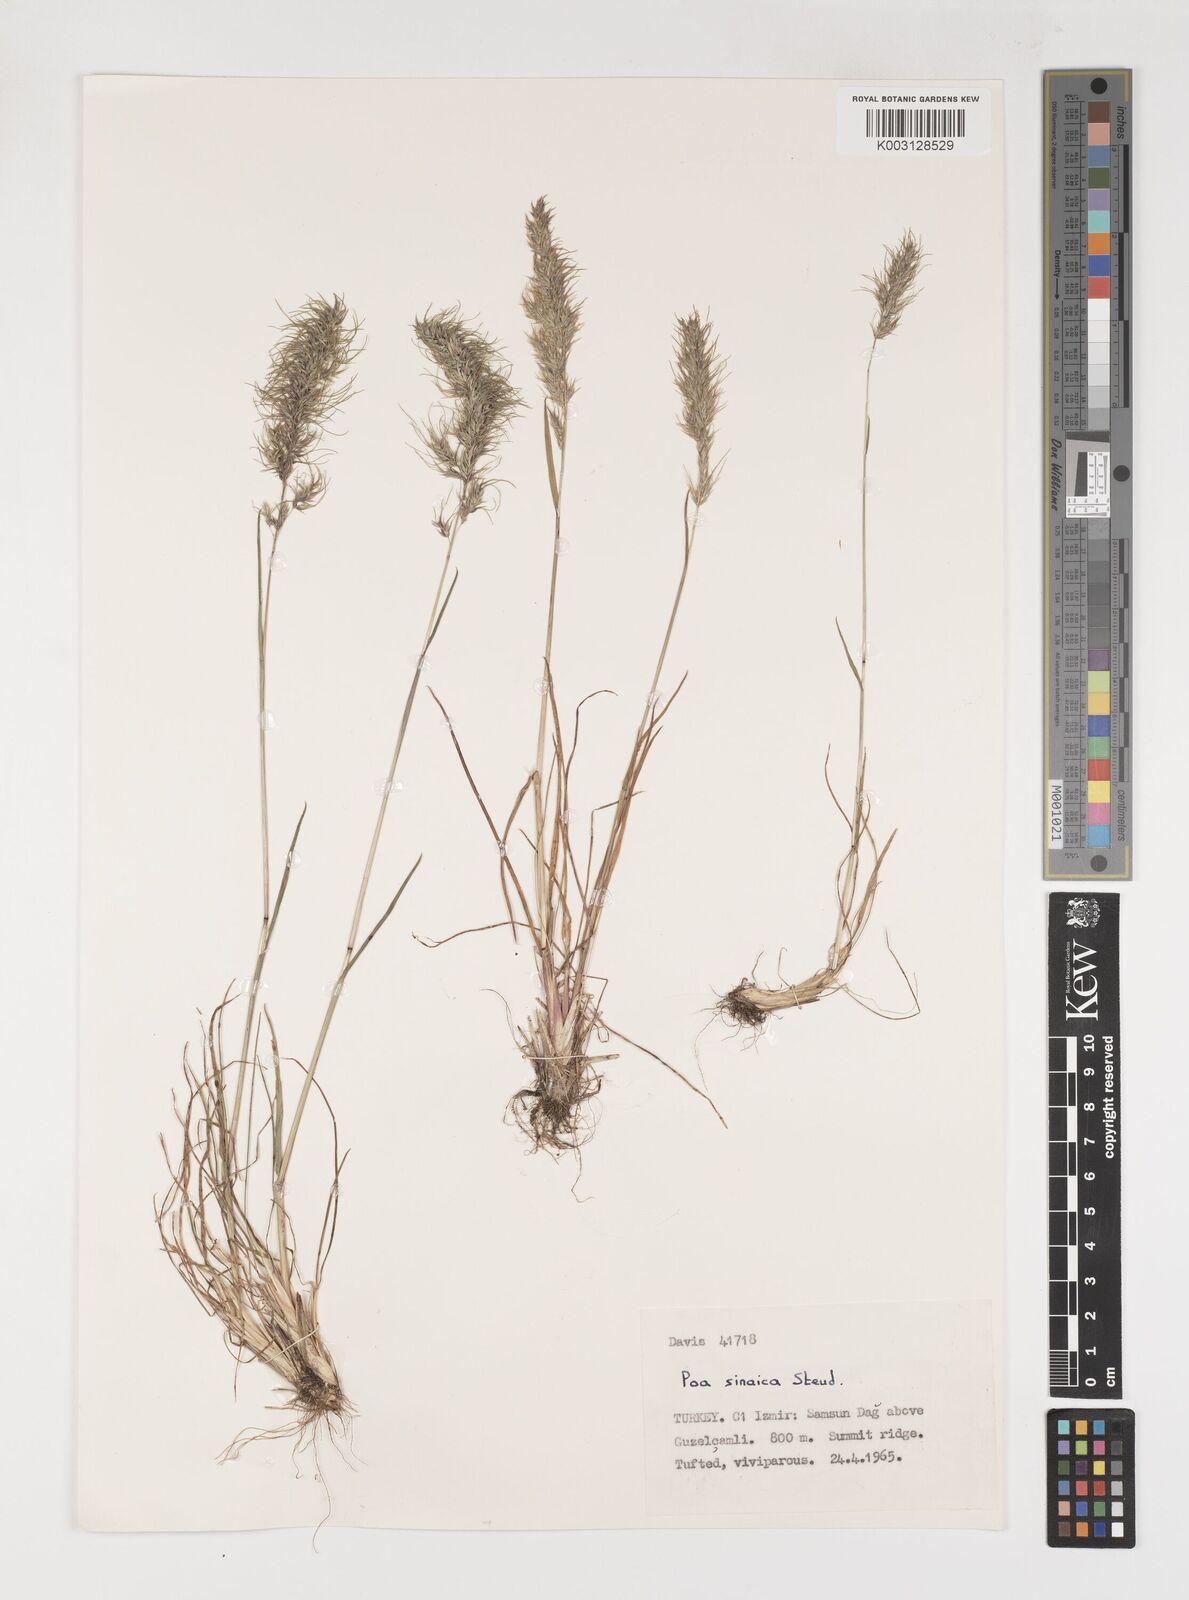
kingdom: Plantae
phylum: Tracheophyta
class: Liliopsida
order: Poales
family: Poaceae
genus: Poa
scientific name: Poa sinaica
